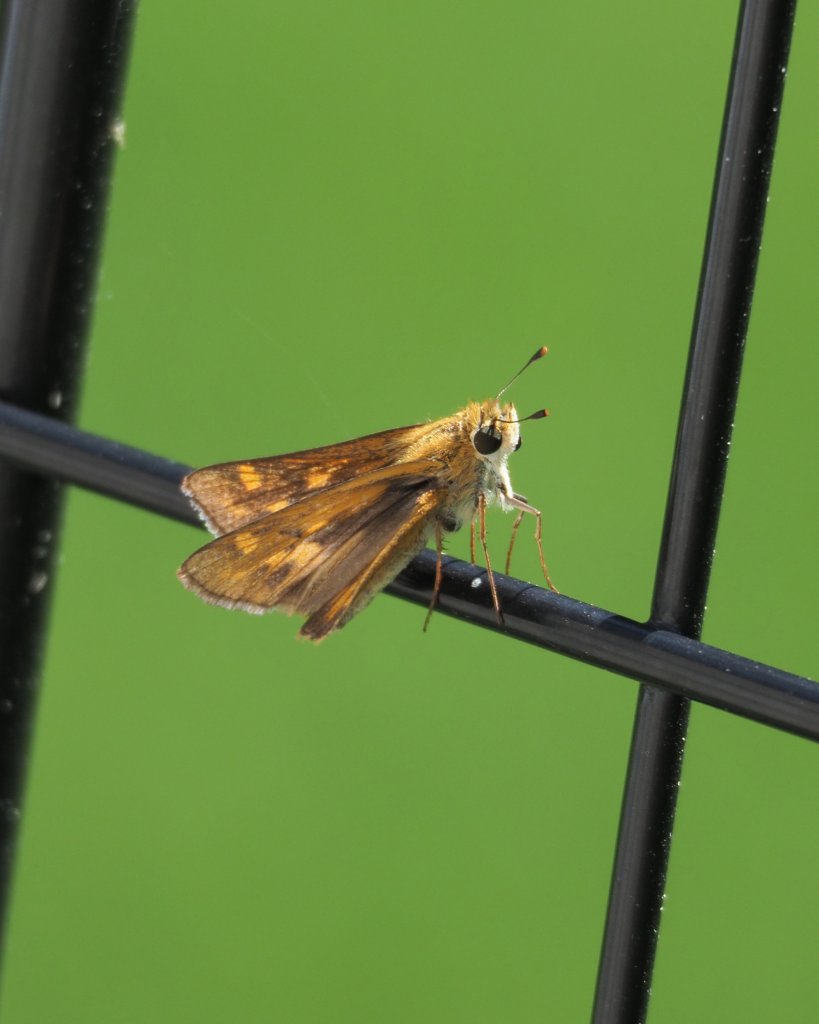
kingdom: Animalia
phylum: Arthropoda
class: Insecta
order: Lepidoptera
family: Hesperiidae
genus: Atalopedes
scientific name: Atalopedes campestris
